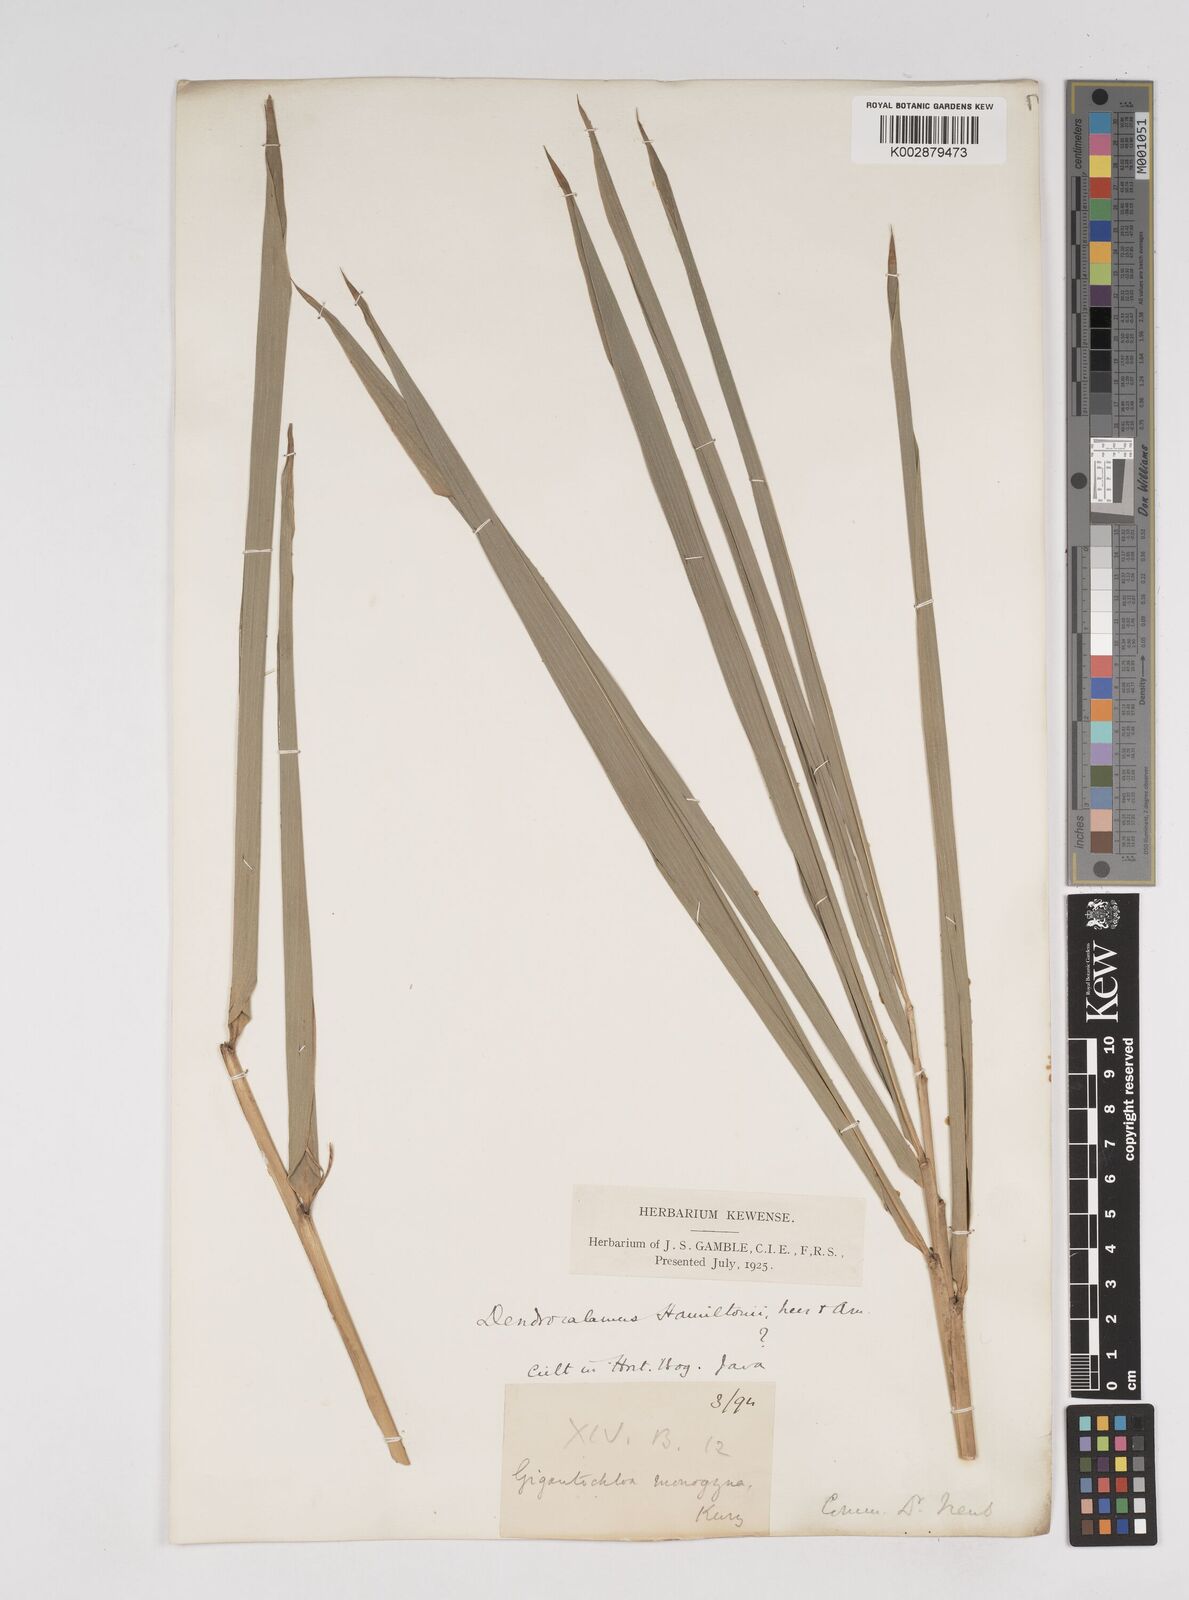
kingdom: Plantae
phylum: Tracheophyta
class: Liliopsida
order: Poales
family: Poaceae
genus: Dendrocalamus
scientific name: Dendrocalamus
